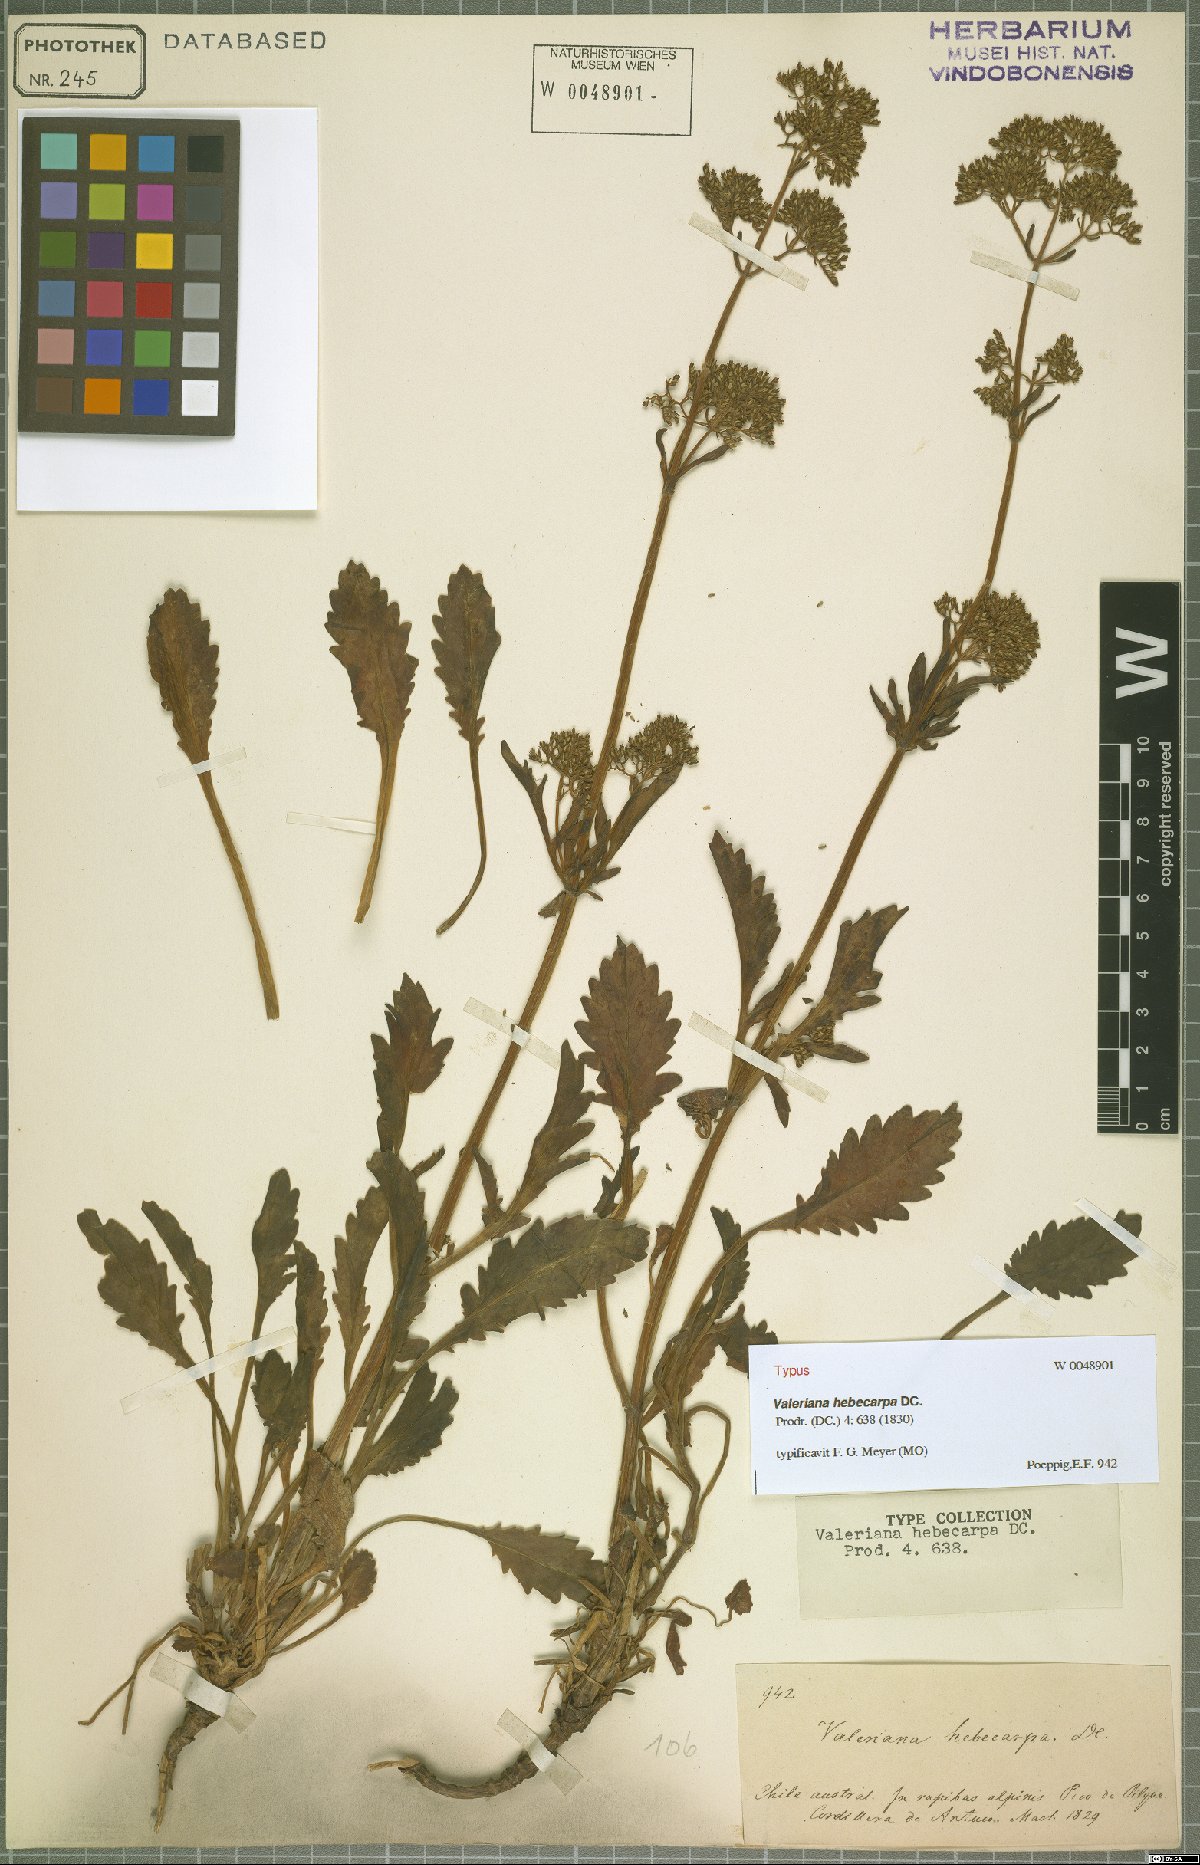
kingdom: Plantae
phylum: Tracheophyta
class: Magnoliopsida
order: Dipsacales
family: Caprifoliaceae
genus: Valeriana
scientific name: Valeriana hebecarpa
